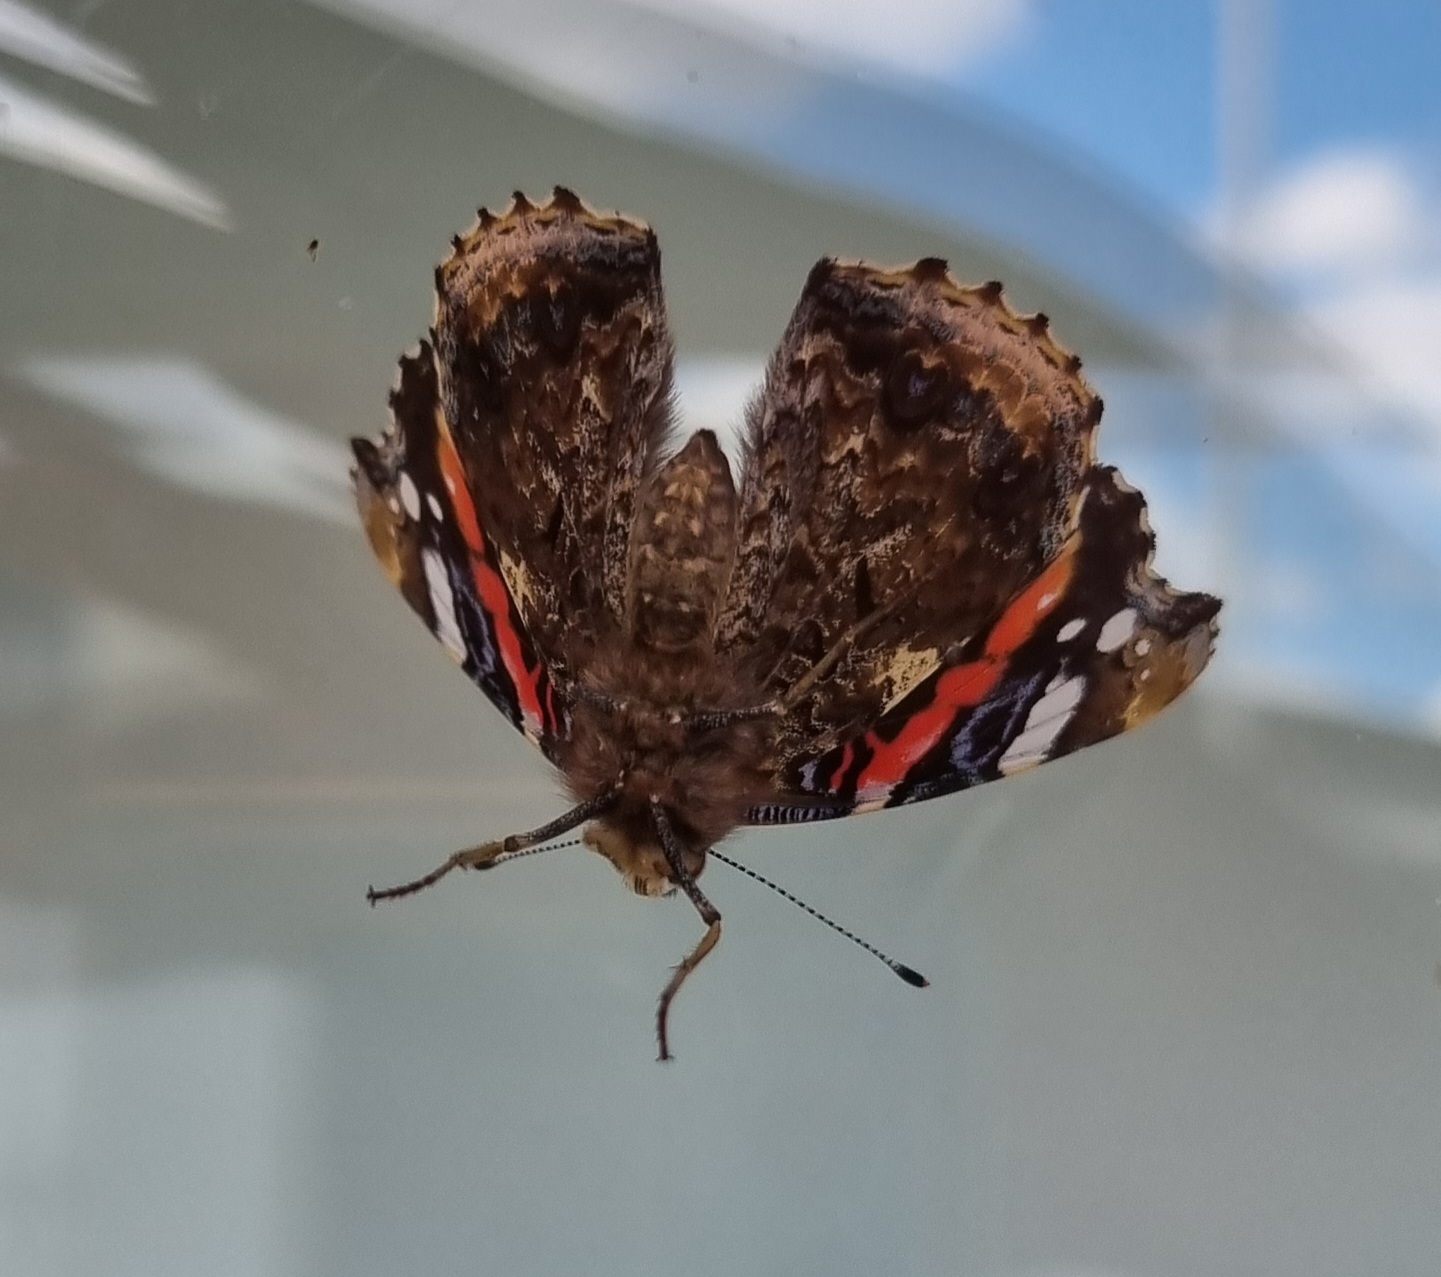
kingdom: Animalia
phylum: Arthropoda
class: Insecta
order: Lepidoptera
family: Nymphalidae
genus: Vanessa
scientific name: Vanessa atalanta
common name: Admiral
